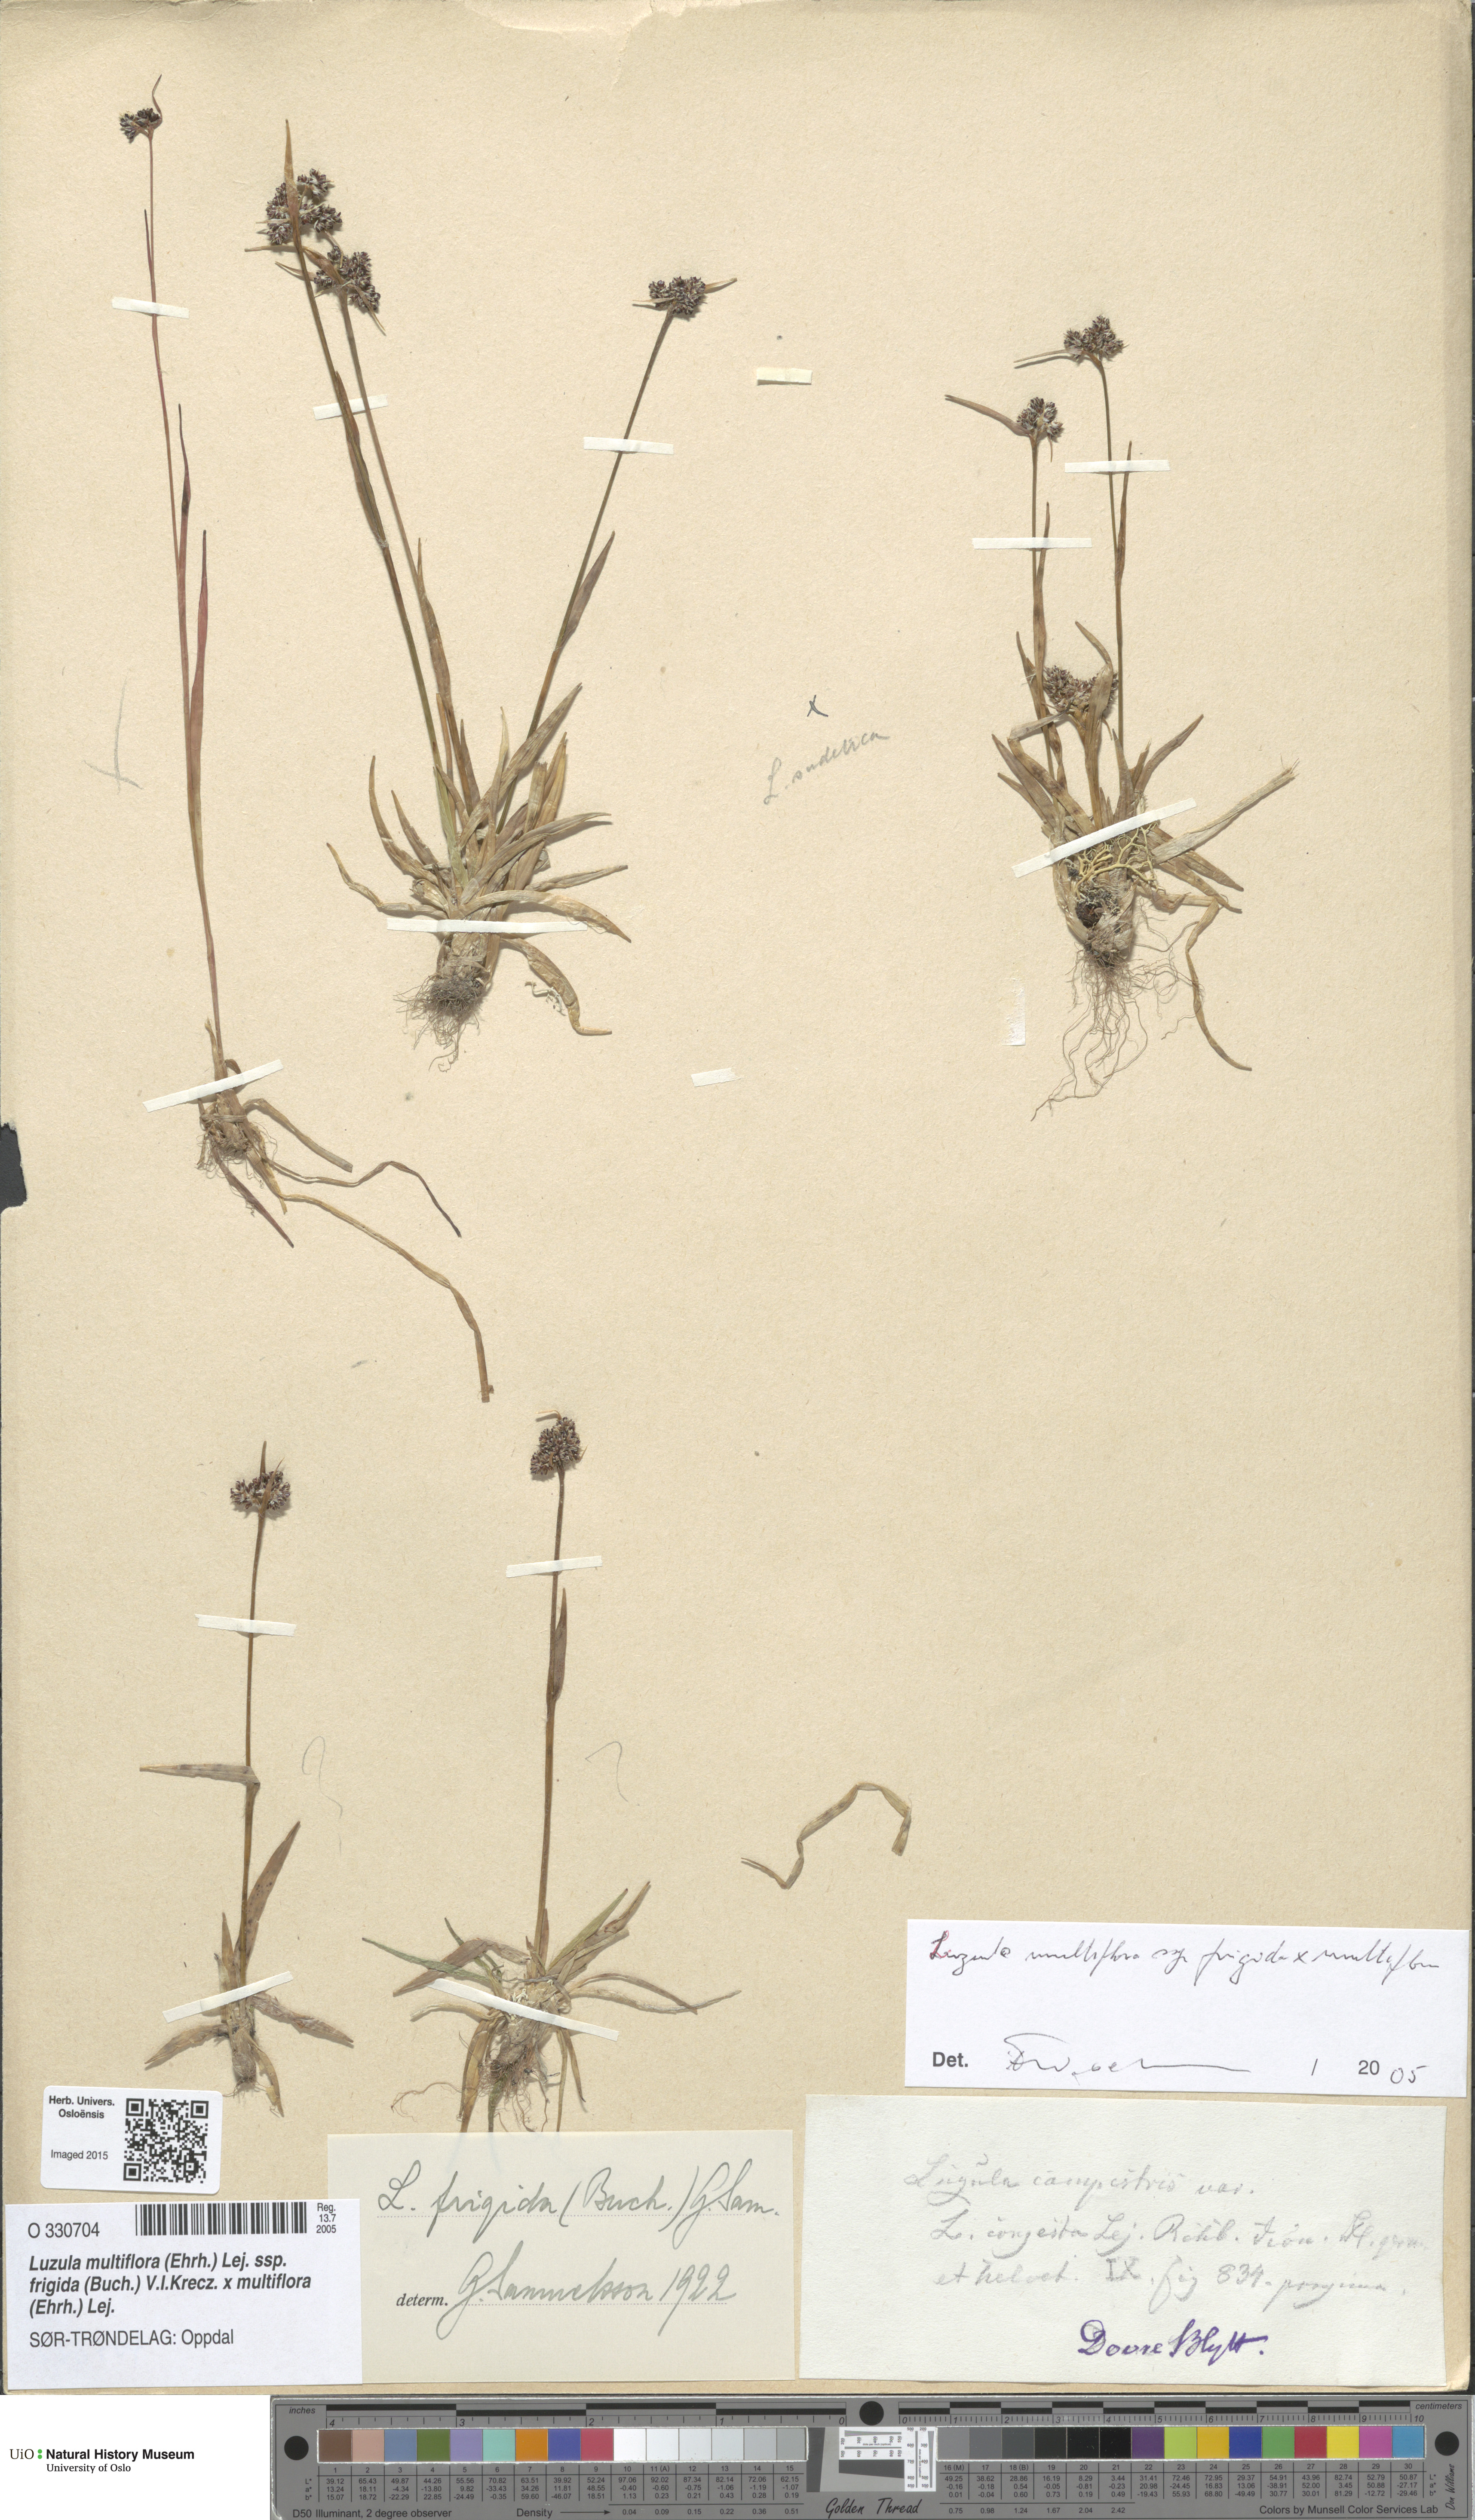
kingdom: Plantae
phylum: Tracheophyta
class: Liliopsida
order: Poales
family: Juncaceae
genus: Luzula
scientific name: Luzula
